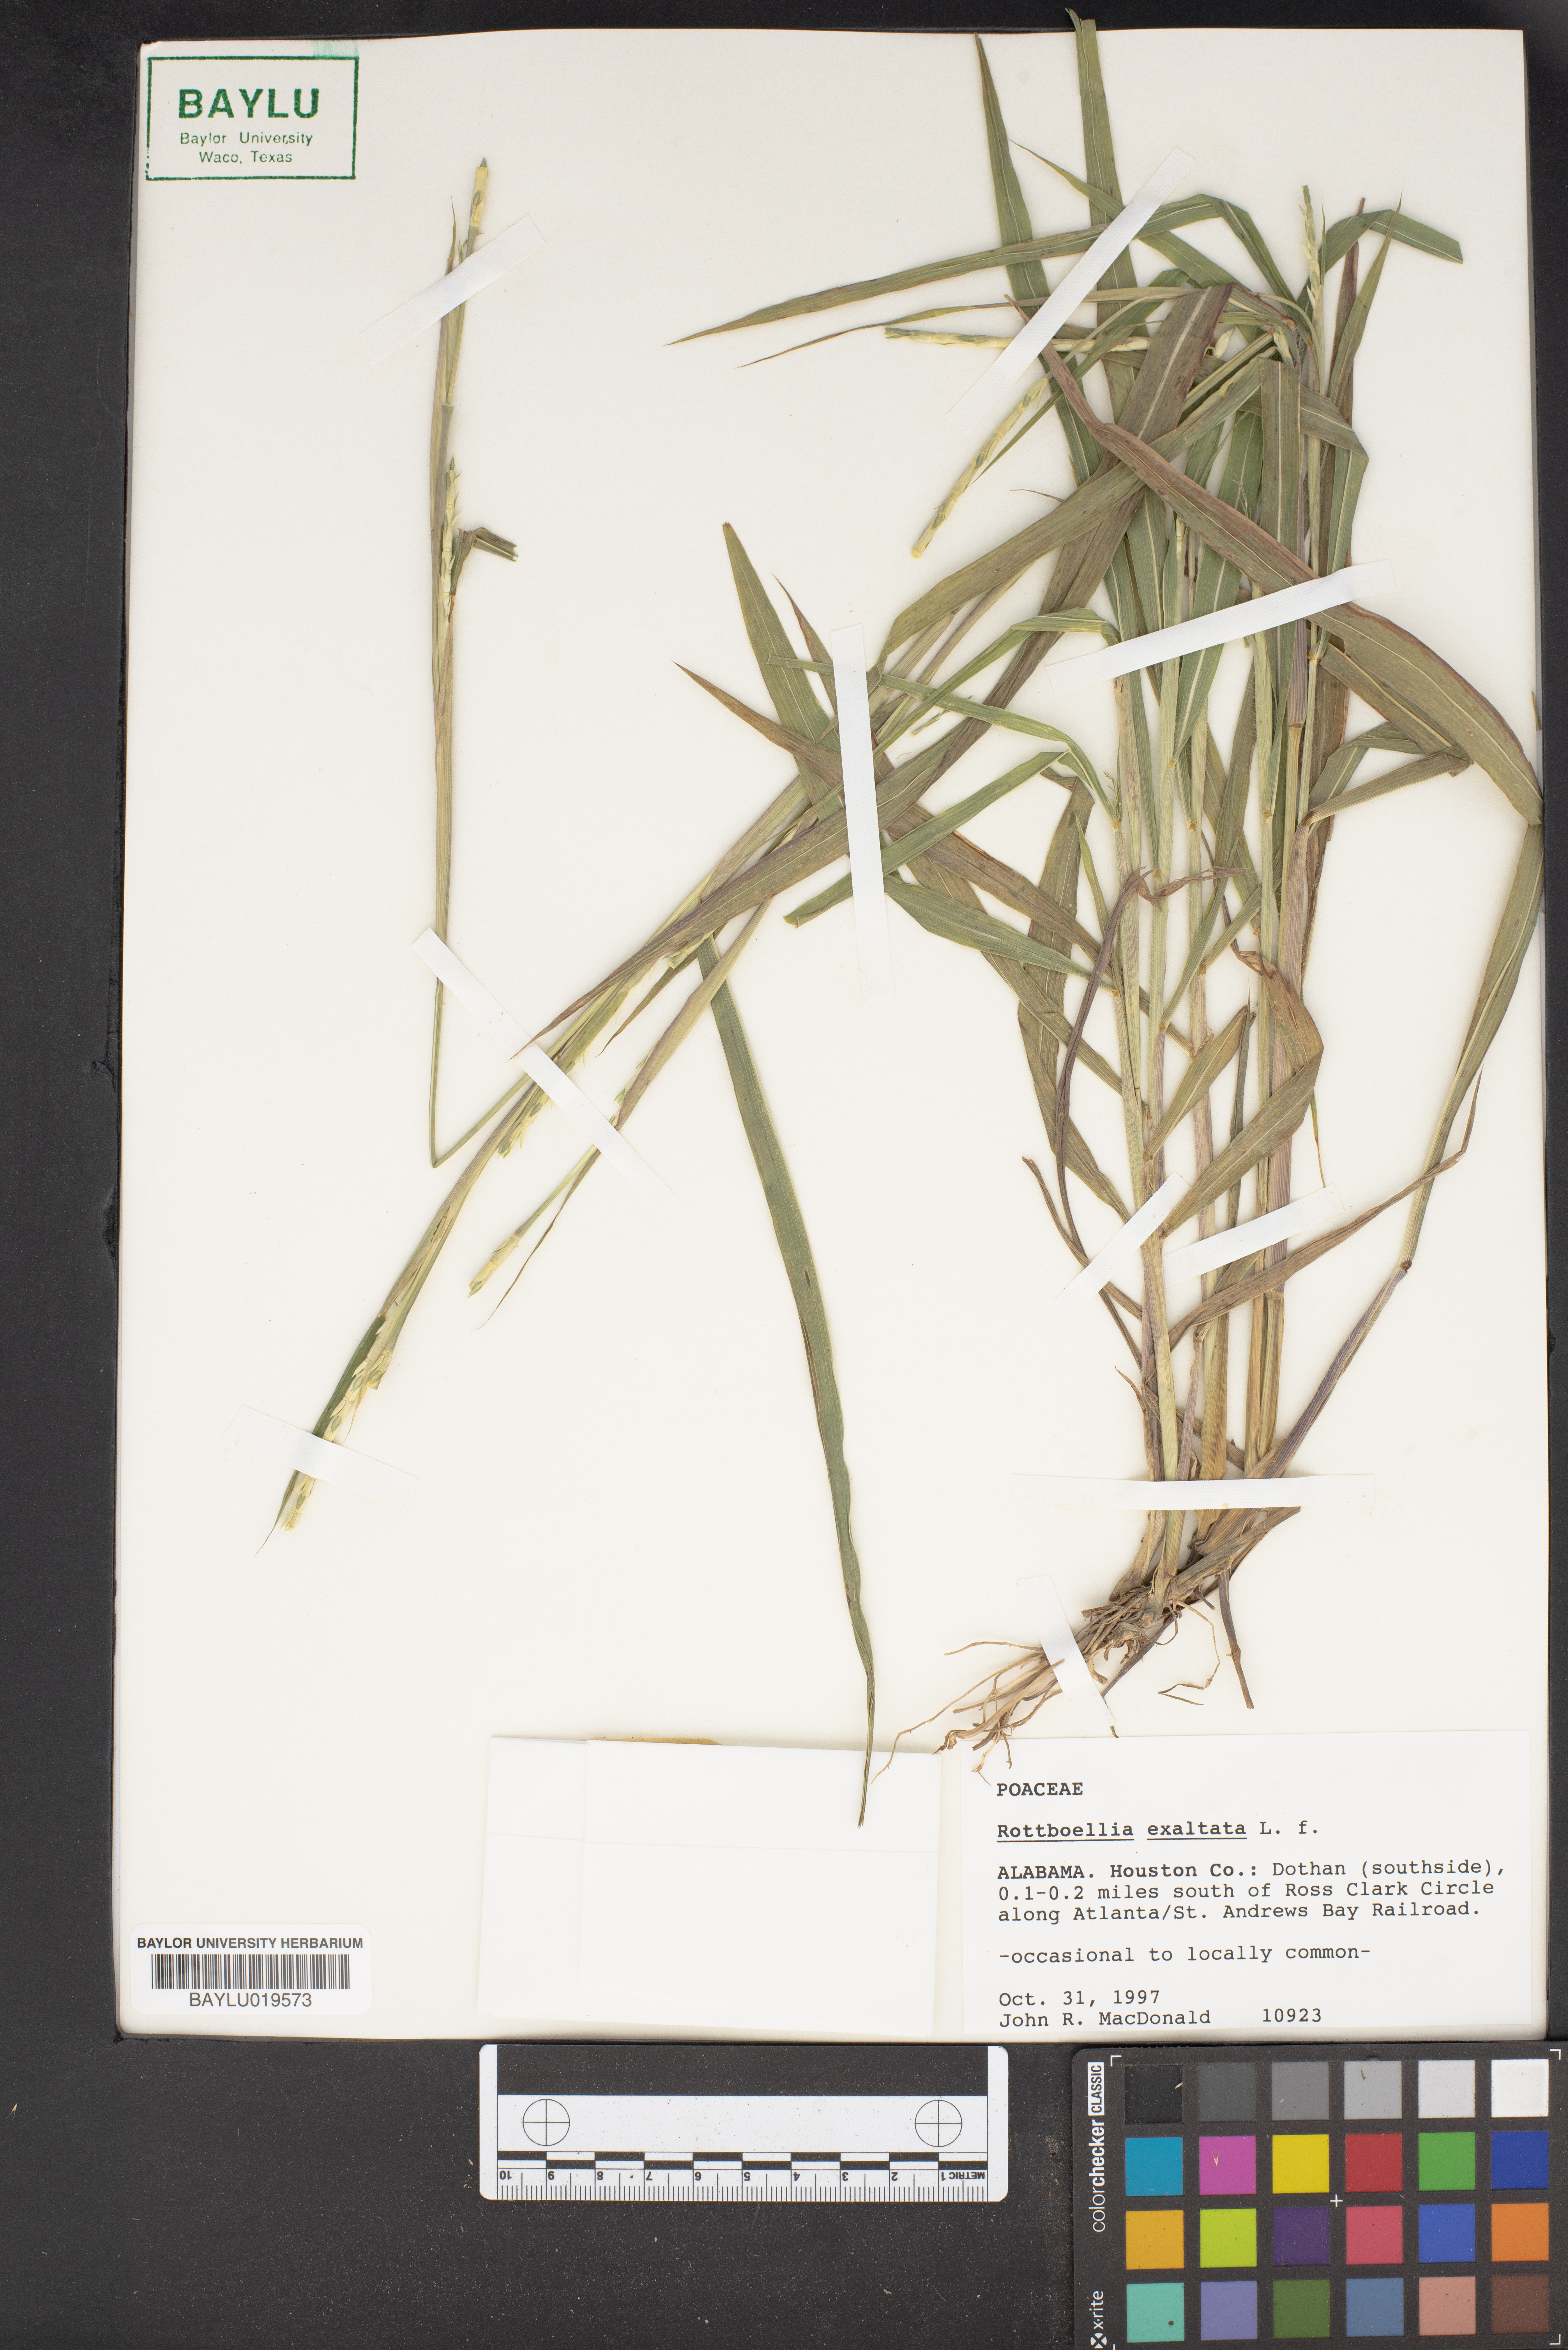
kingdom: Plantae
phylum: Tracheophyta
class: Liliopsida
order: Poales
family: Poaceae
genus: Rottboellia
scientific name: Rottboellia cochinchinensis
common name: Itchgrass
